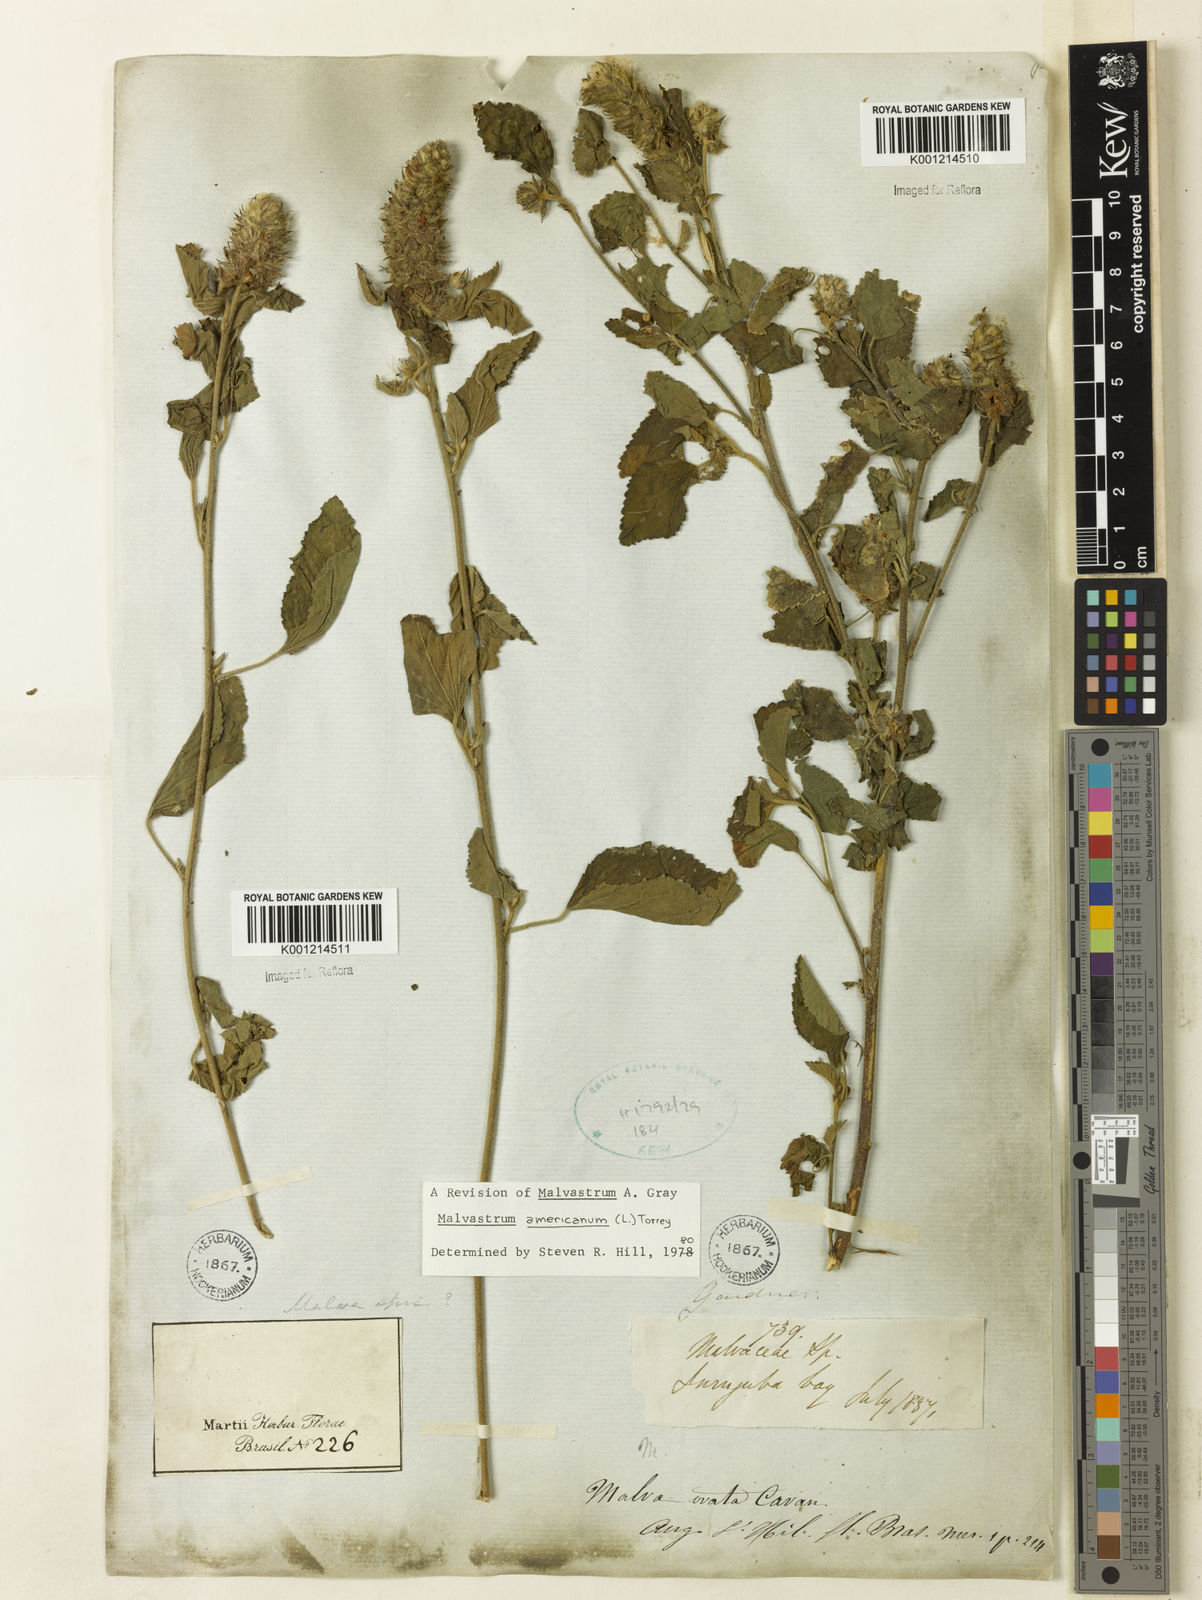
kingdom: Plantae
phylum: Tracheophyta
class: Magnoliopsida
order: Malvales
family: Malvaceae
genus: Malvastrum
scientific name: Malvastrum americanum
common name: Spiked malvastrum
